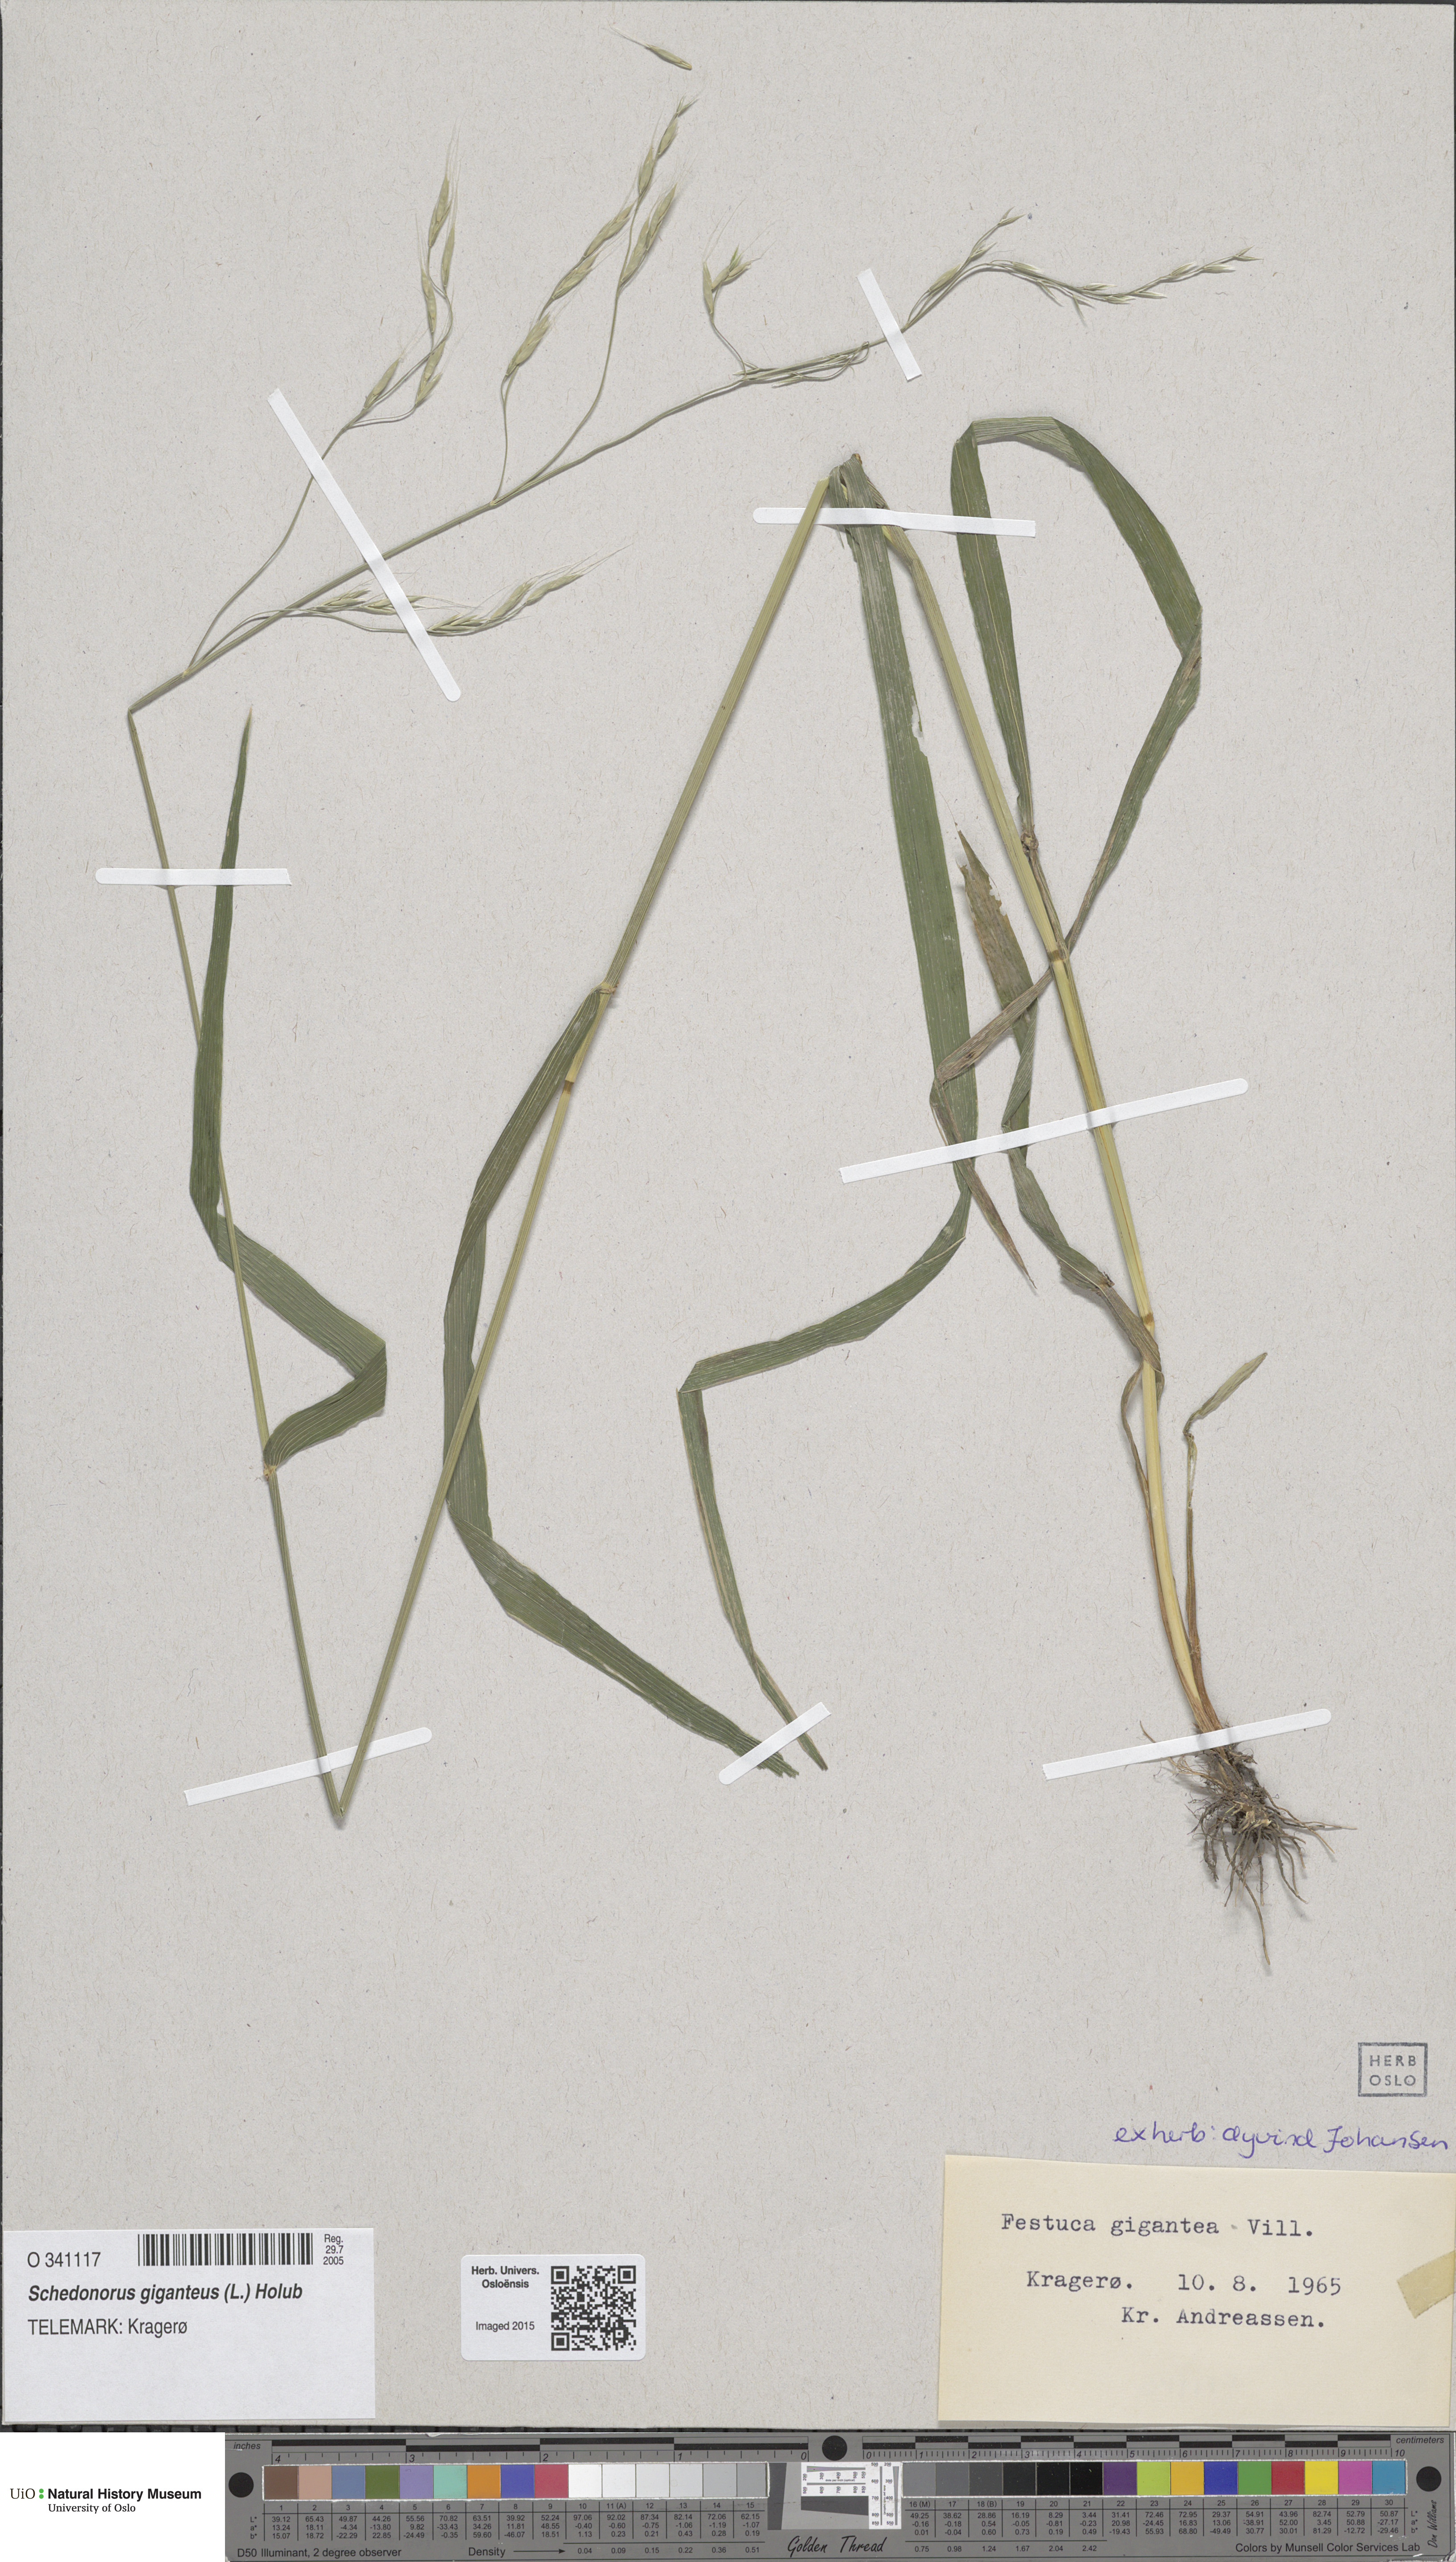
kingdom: Plantae
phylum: Tracheophyta
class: Liliopsida
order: Poales
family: Poaceae
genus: Lolium
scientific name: Lolium giganteum
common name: Giant fescue
